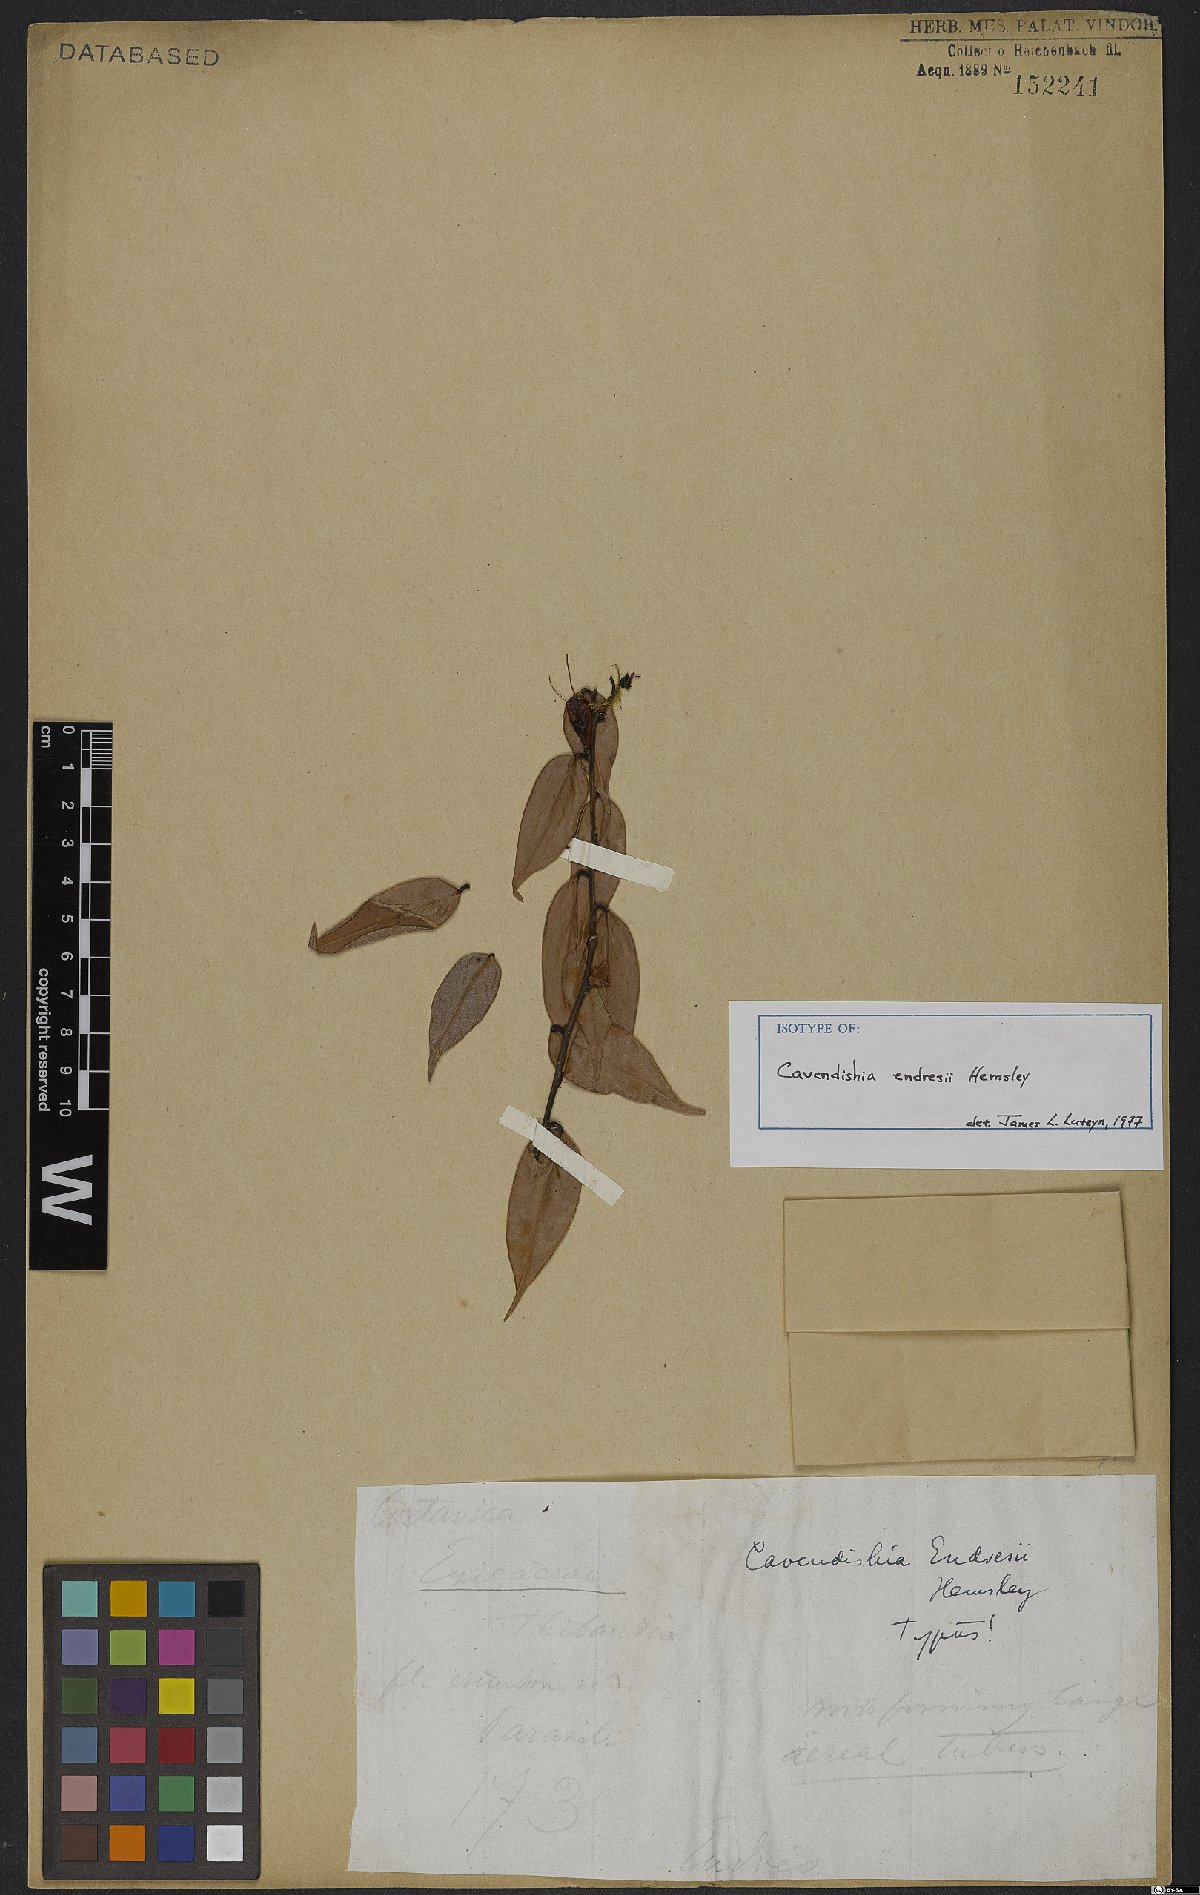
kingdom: Plantae
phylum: Tracheophyta
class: Magnoliopsida
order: Ericales
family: Ericaceae
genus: Cavendishia
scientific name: Cavendishia endresii
